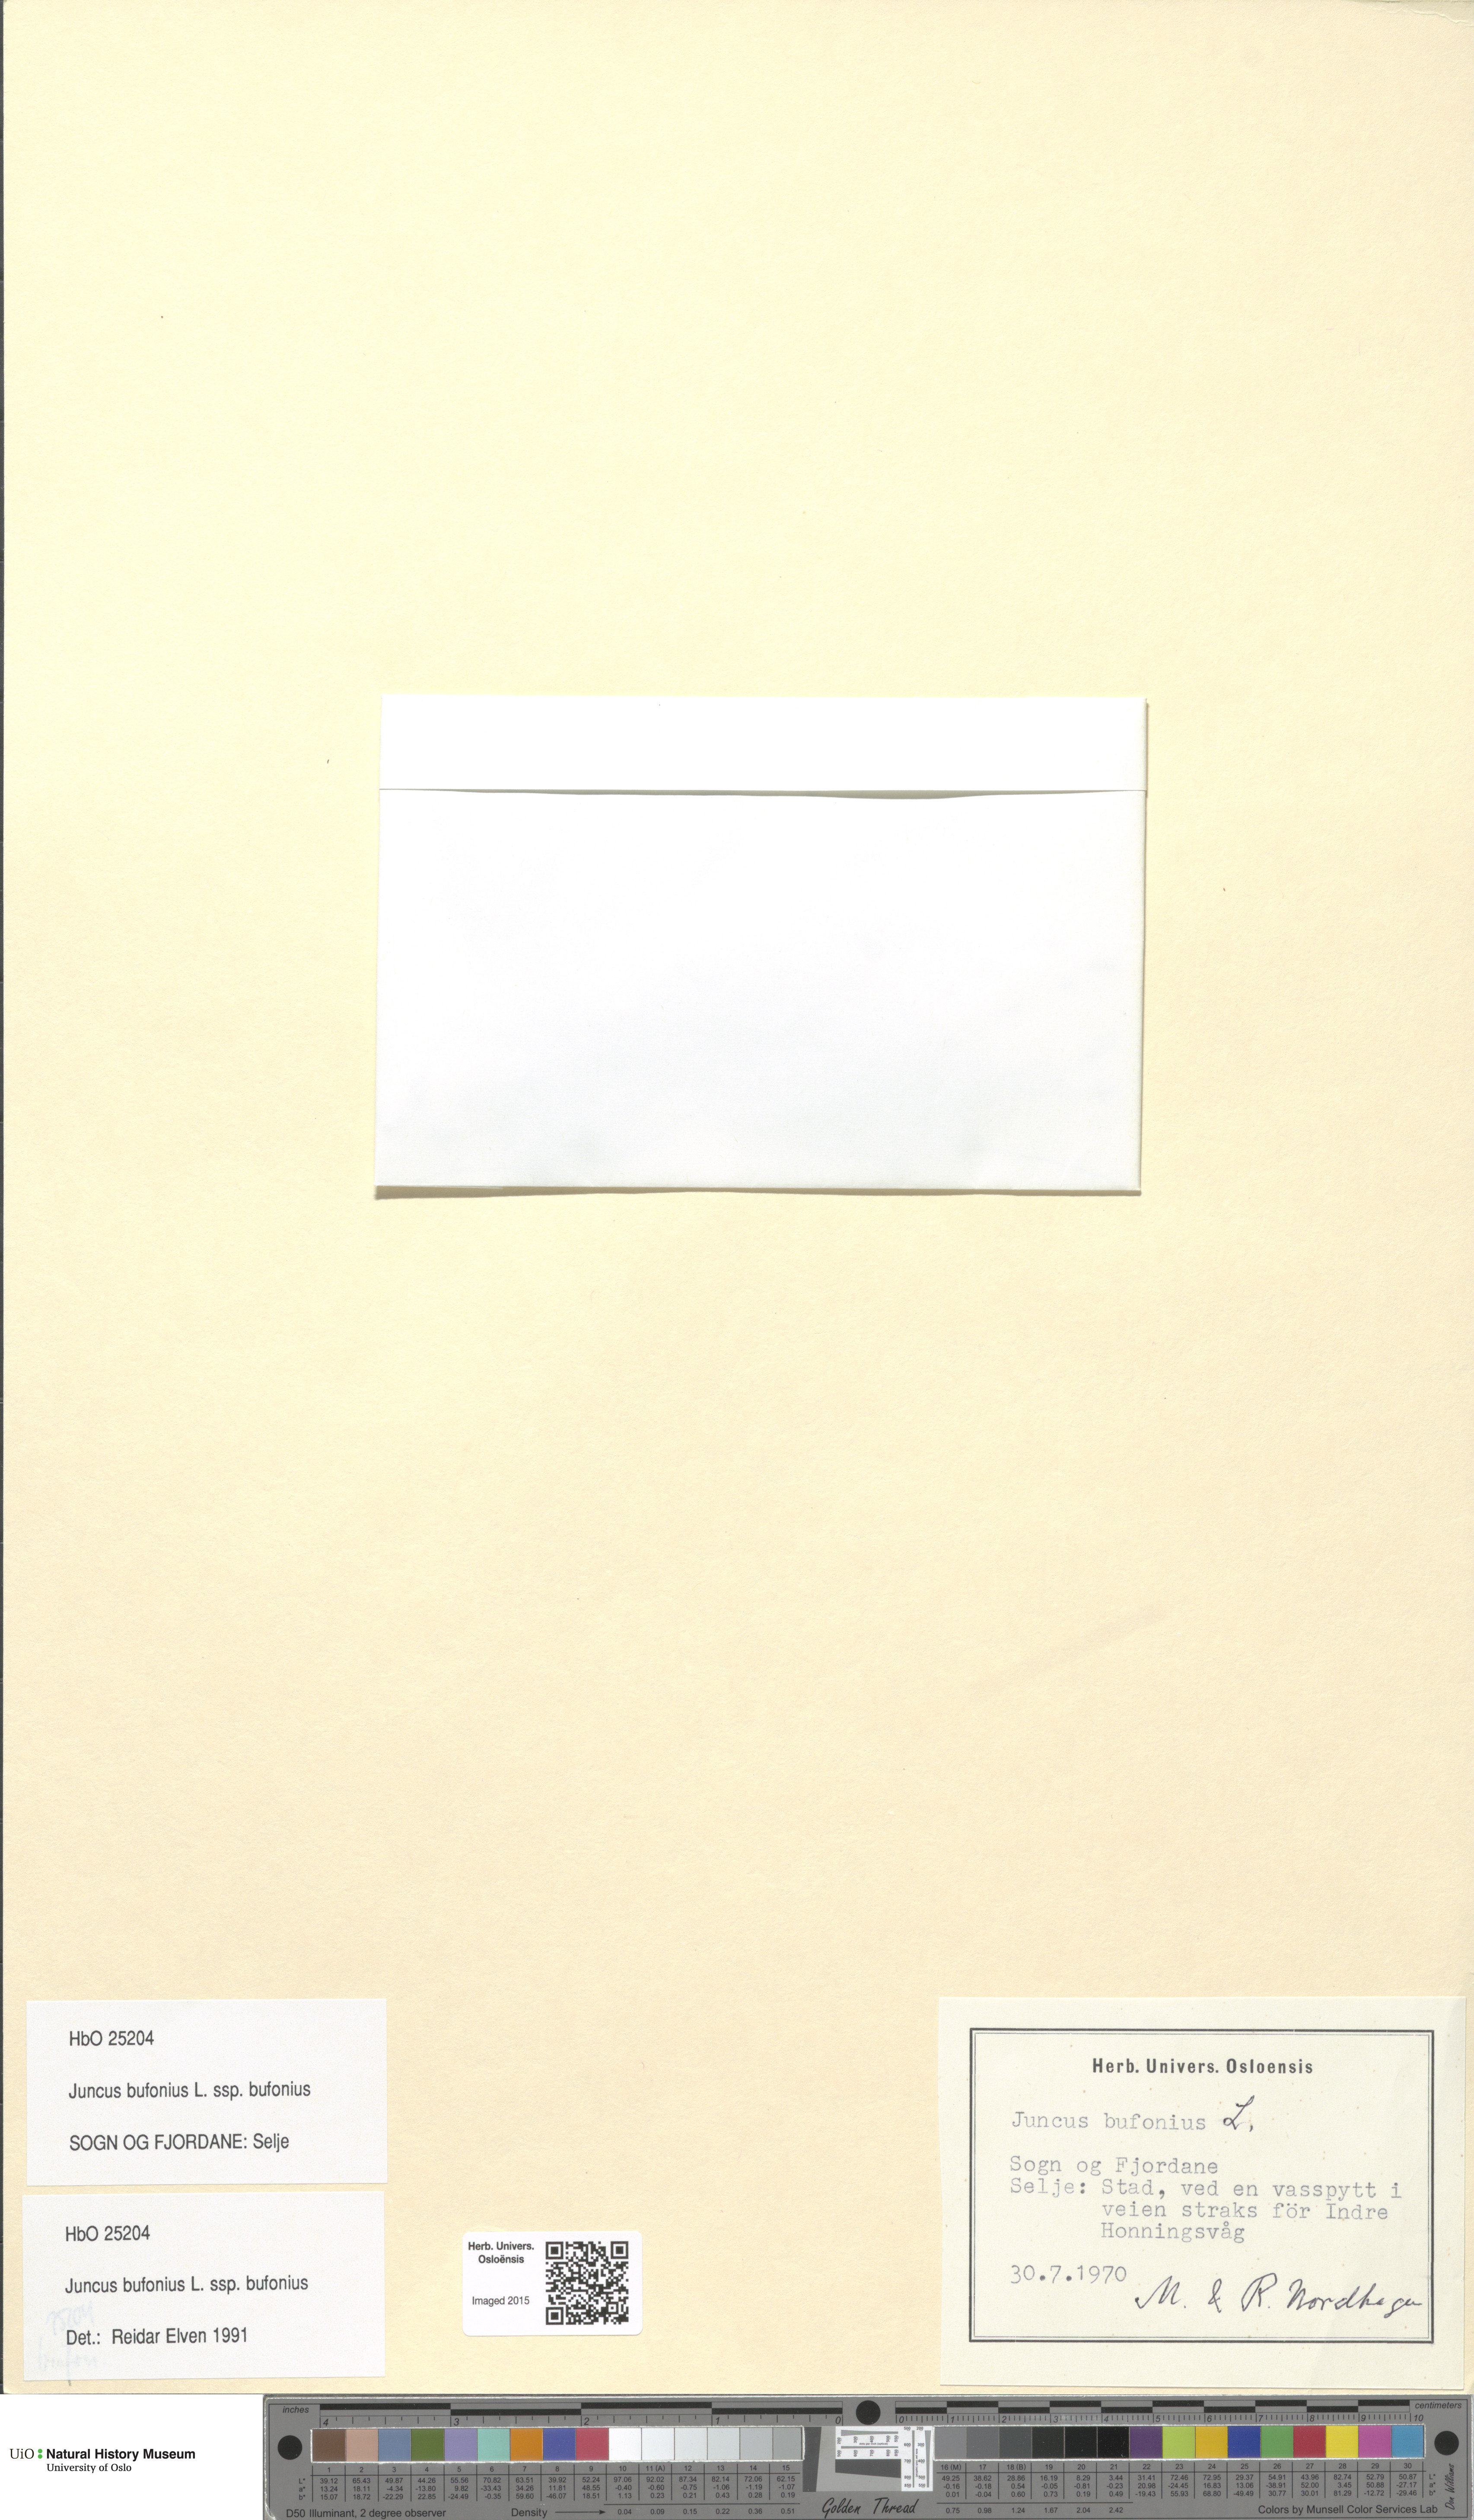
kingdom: Plantae
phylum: Tracheophyta
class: Liliopsida
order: Poales
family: Juncaceae
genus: Juncus
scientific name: Juncus bufonius
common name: Toad rush
